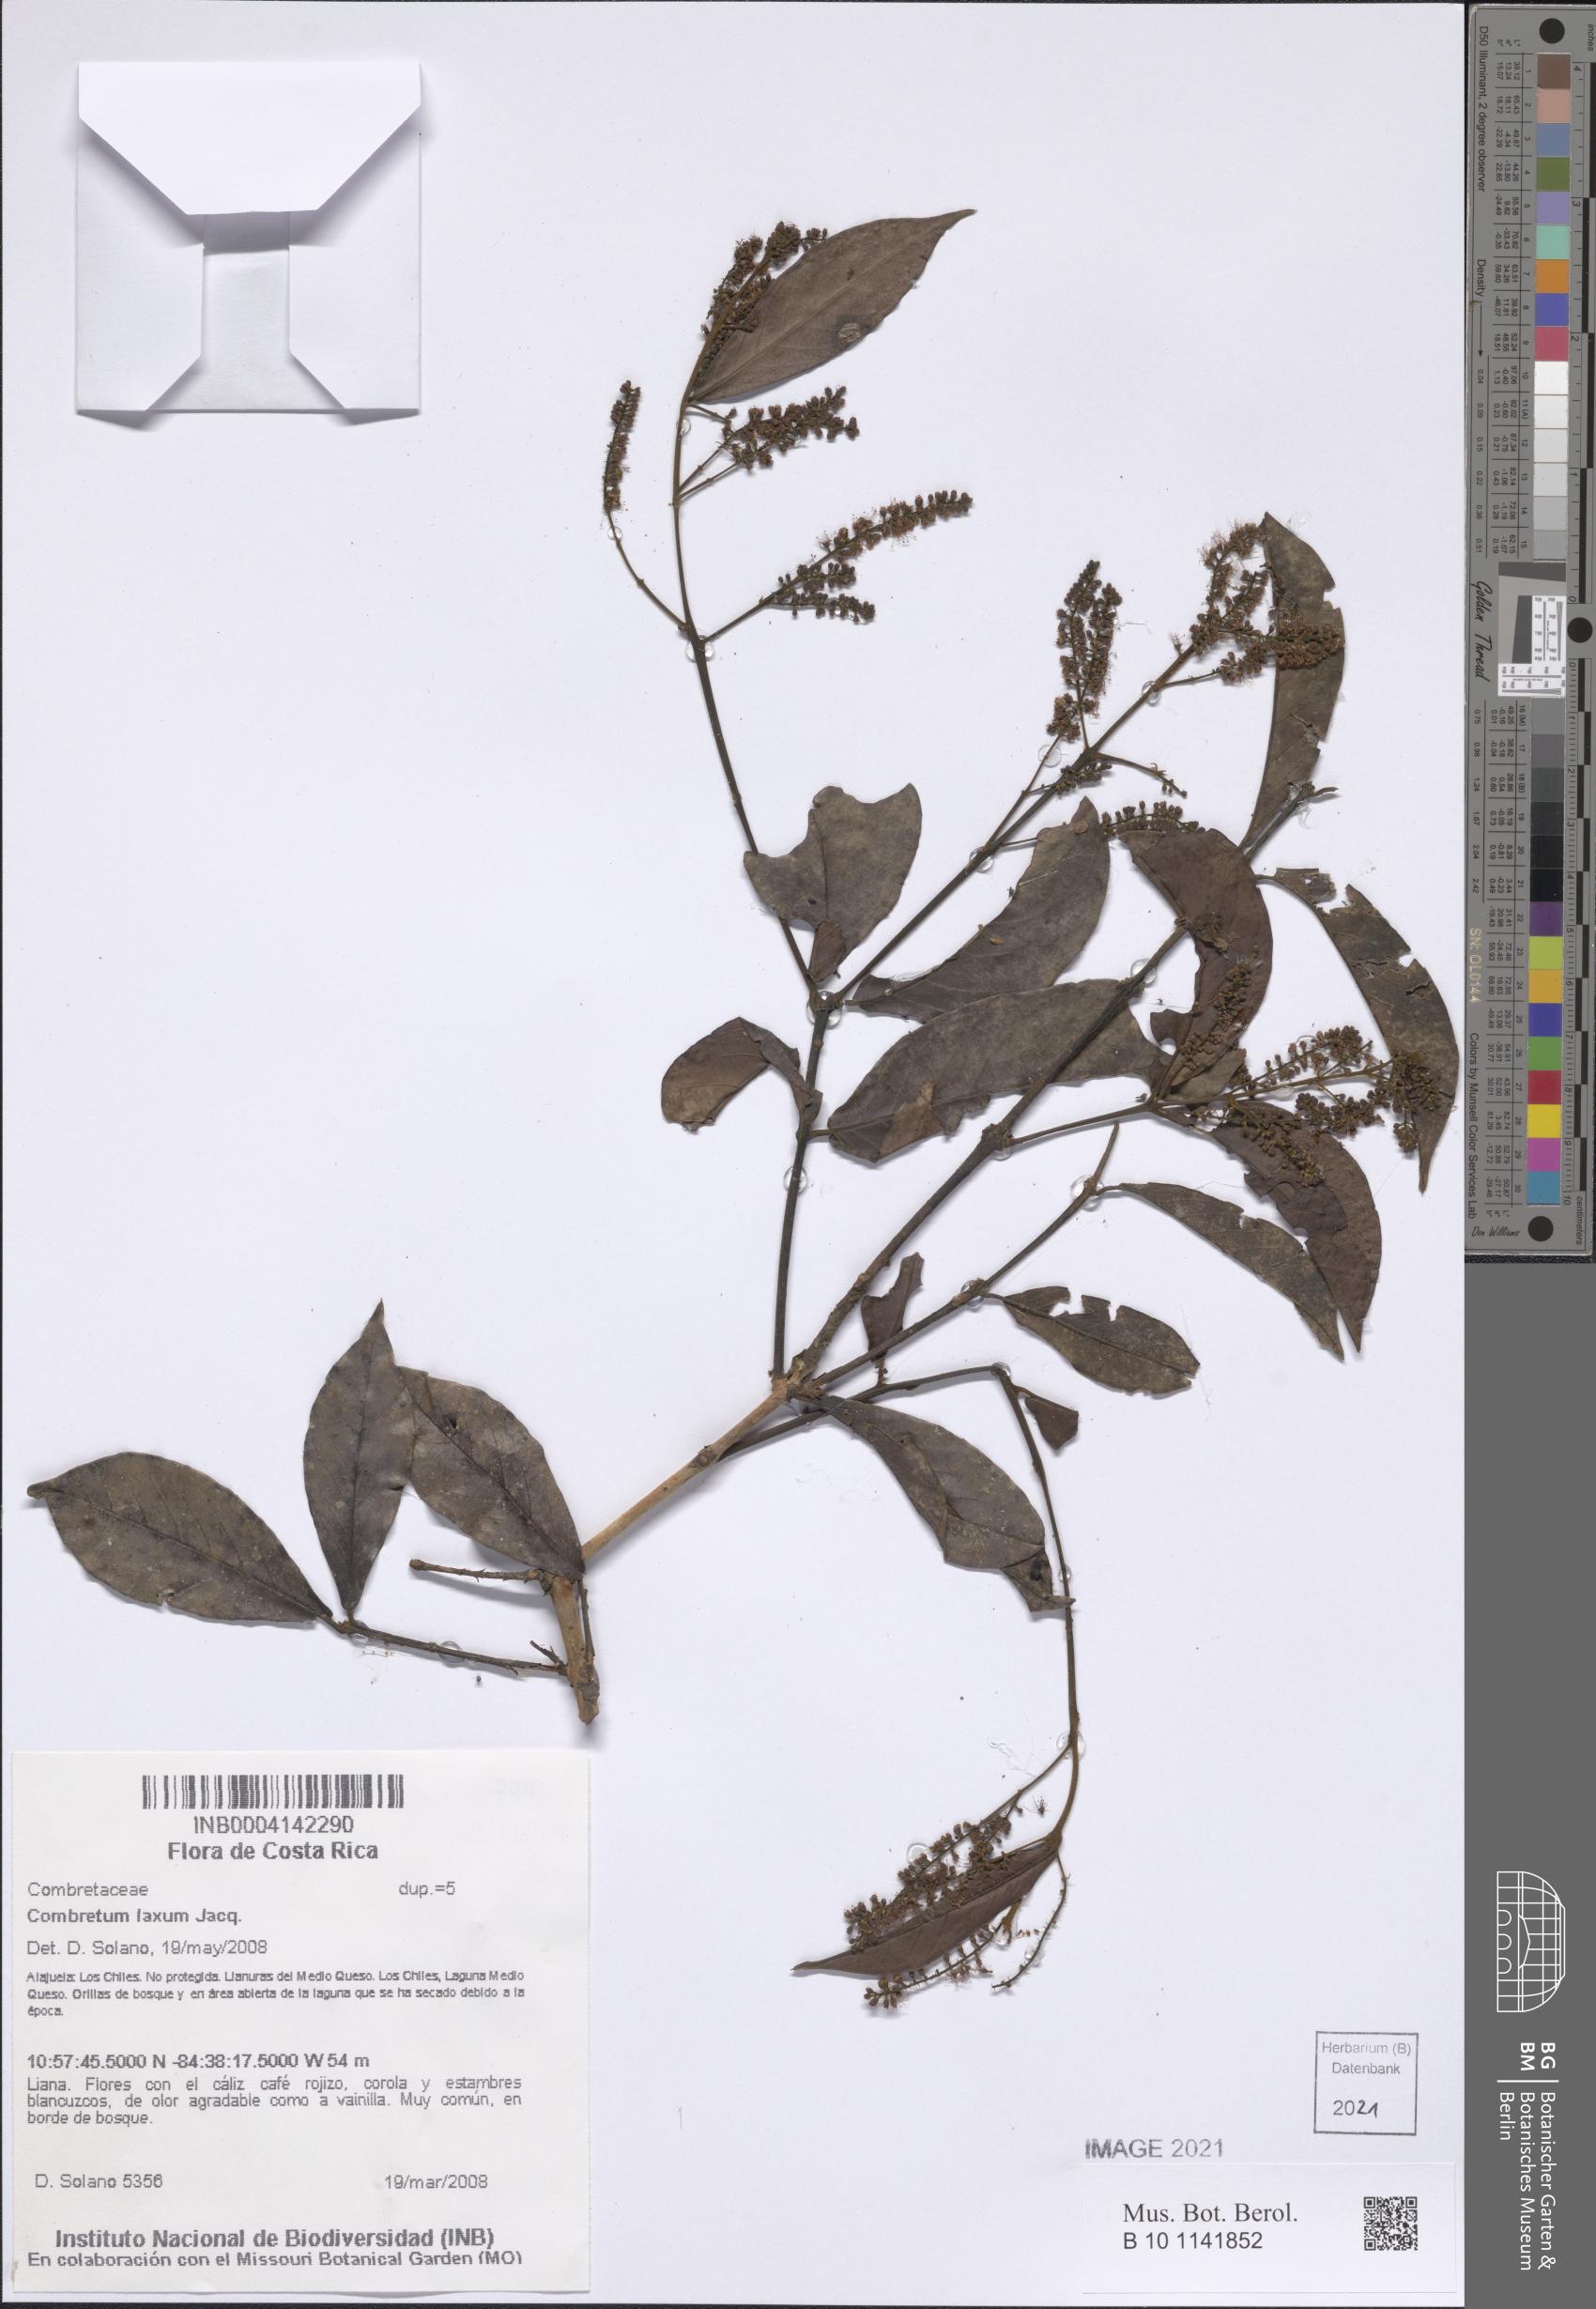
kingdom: Plantae
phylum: Tracheophyta
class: Magnoliopsida
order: Myrtales
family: Combretaceae
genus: Combretum
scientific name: Combretum laxum
